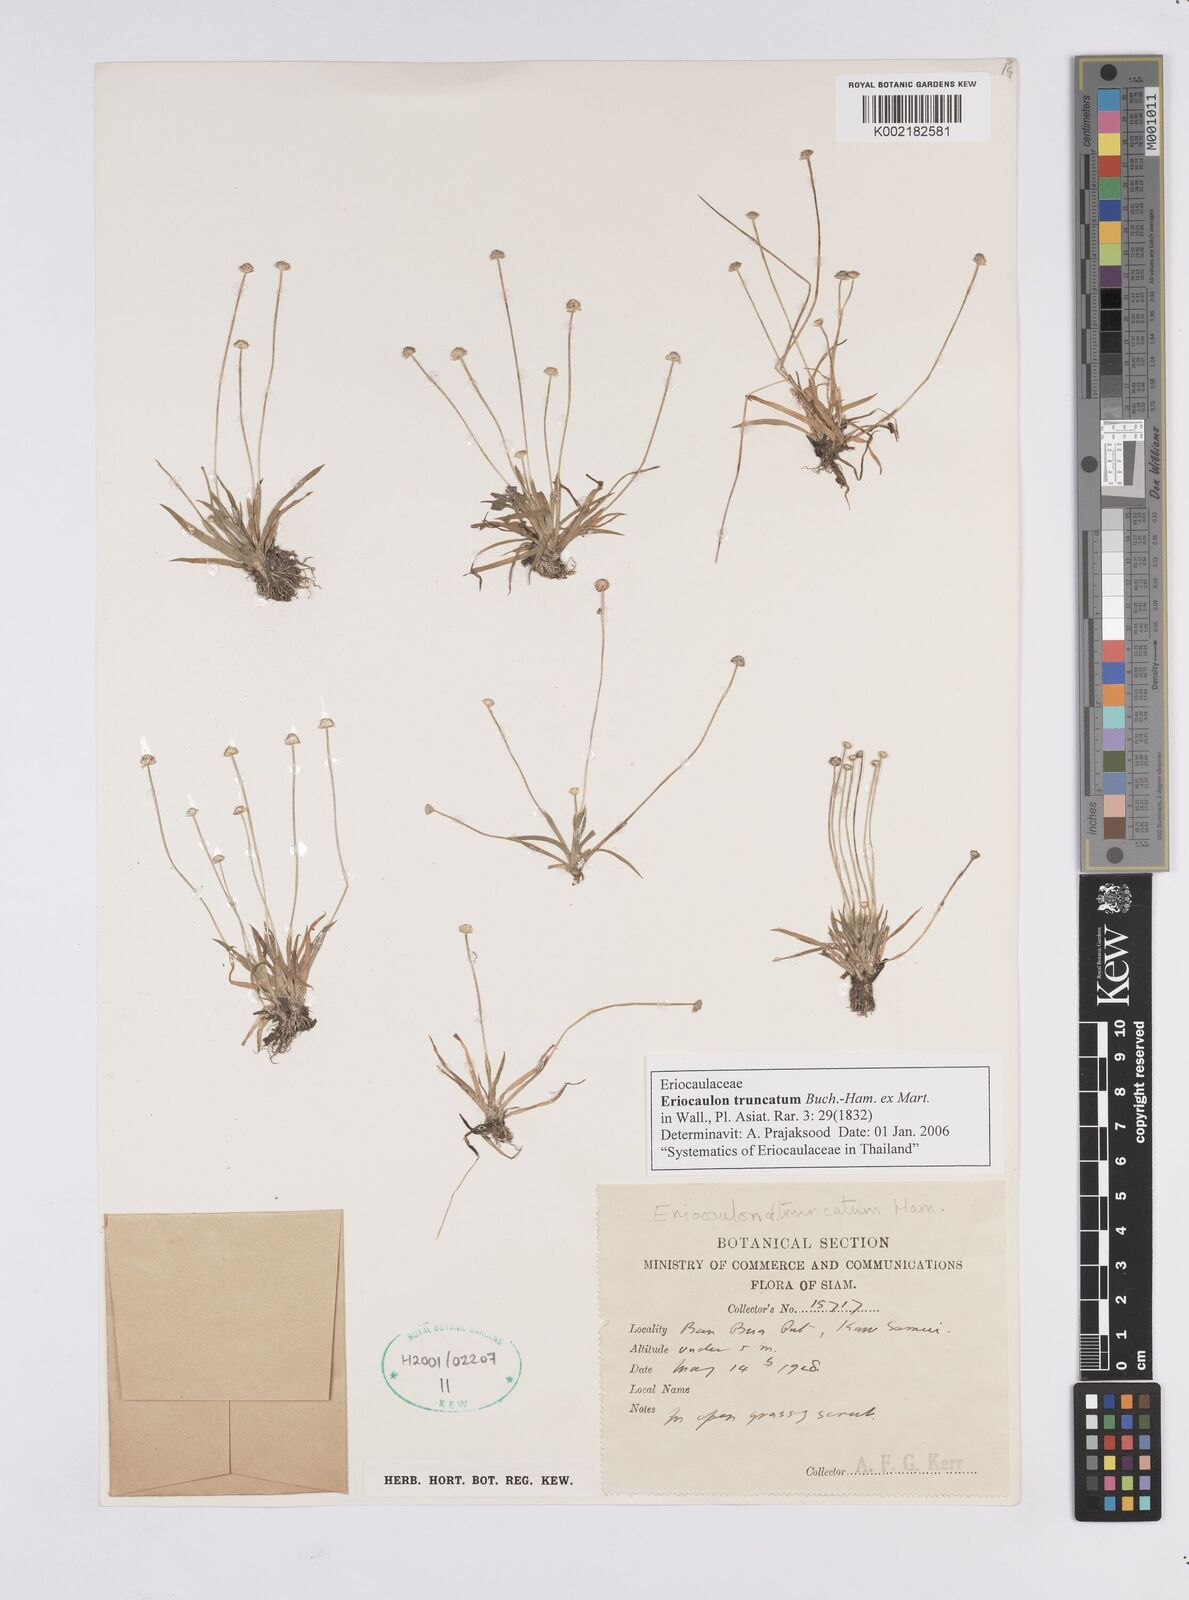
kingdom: Plantae
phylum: Tracheophyta
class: Liliopsida
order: Poales
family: Eriocaulaceae
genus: Eriocaulon
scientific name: Eriocaulon truncatum
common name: Short pipe-wort
